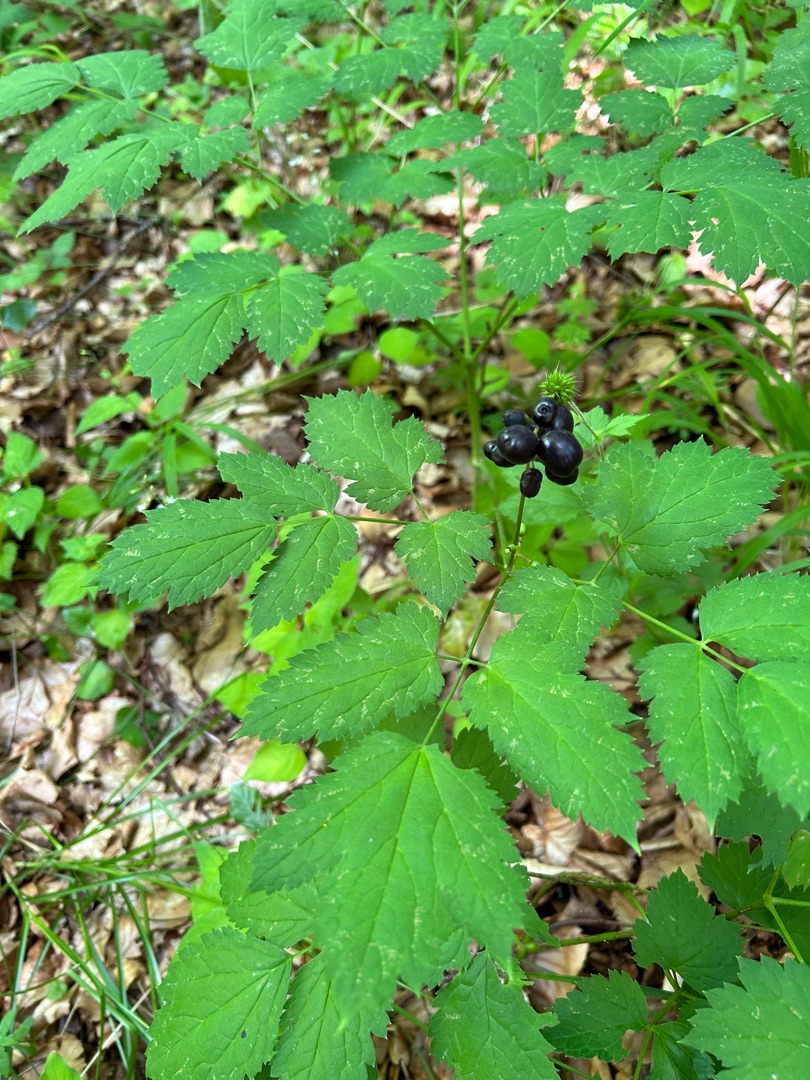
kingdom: Plantae
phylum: Tracheophyta
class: Magnoliopsida
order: Ranunculales
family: Ranunculaceae
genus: Actaea
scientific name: Actaea spicata
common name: Druemunke
